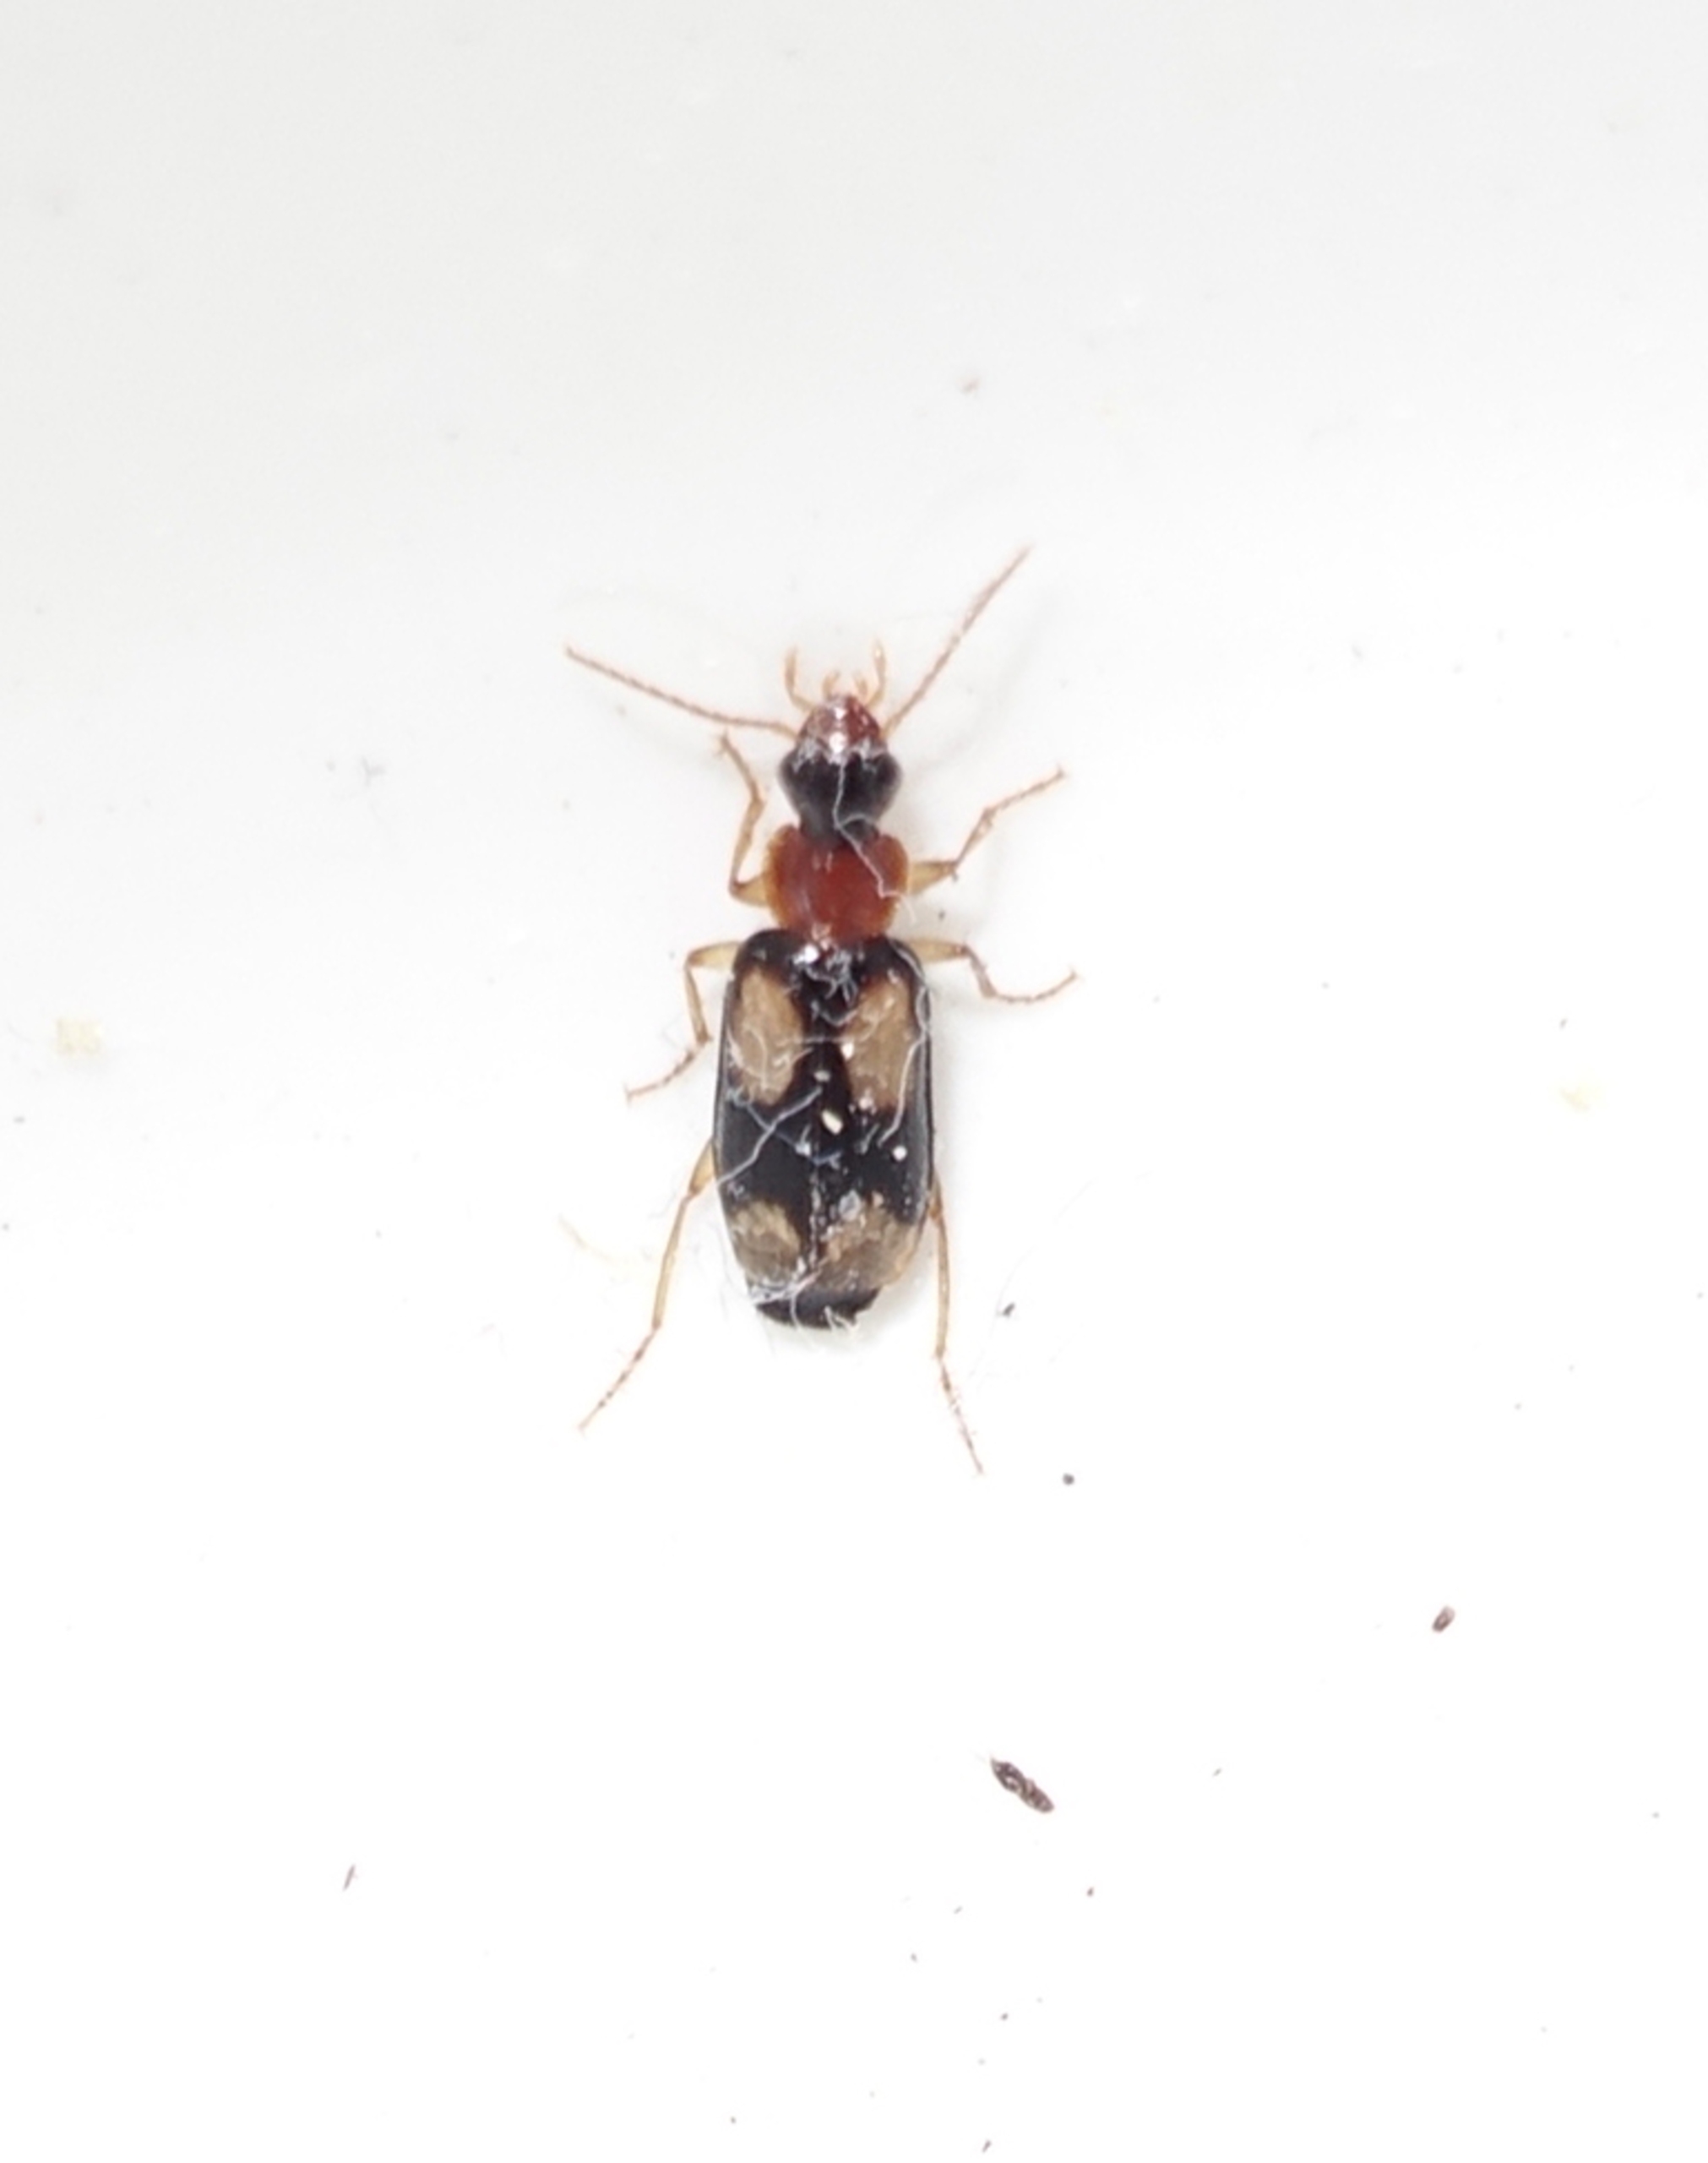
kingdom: Animalia
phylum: Arthropoda
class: Insecta
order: Coleoptera
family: Carabidae
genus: Dromius
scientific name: Dromius quadrimaculatus
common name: Fireplettet barkløber
